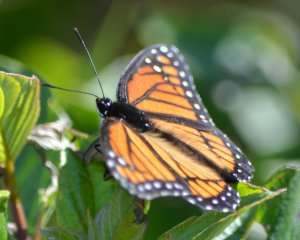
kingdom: Animalia
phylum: Arthropoda
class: Insecta
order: Lepidoptera
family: Nymphalidae
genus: Limenitis
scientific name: Limenitis archippus
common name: Viceroy
